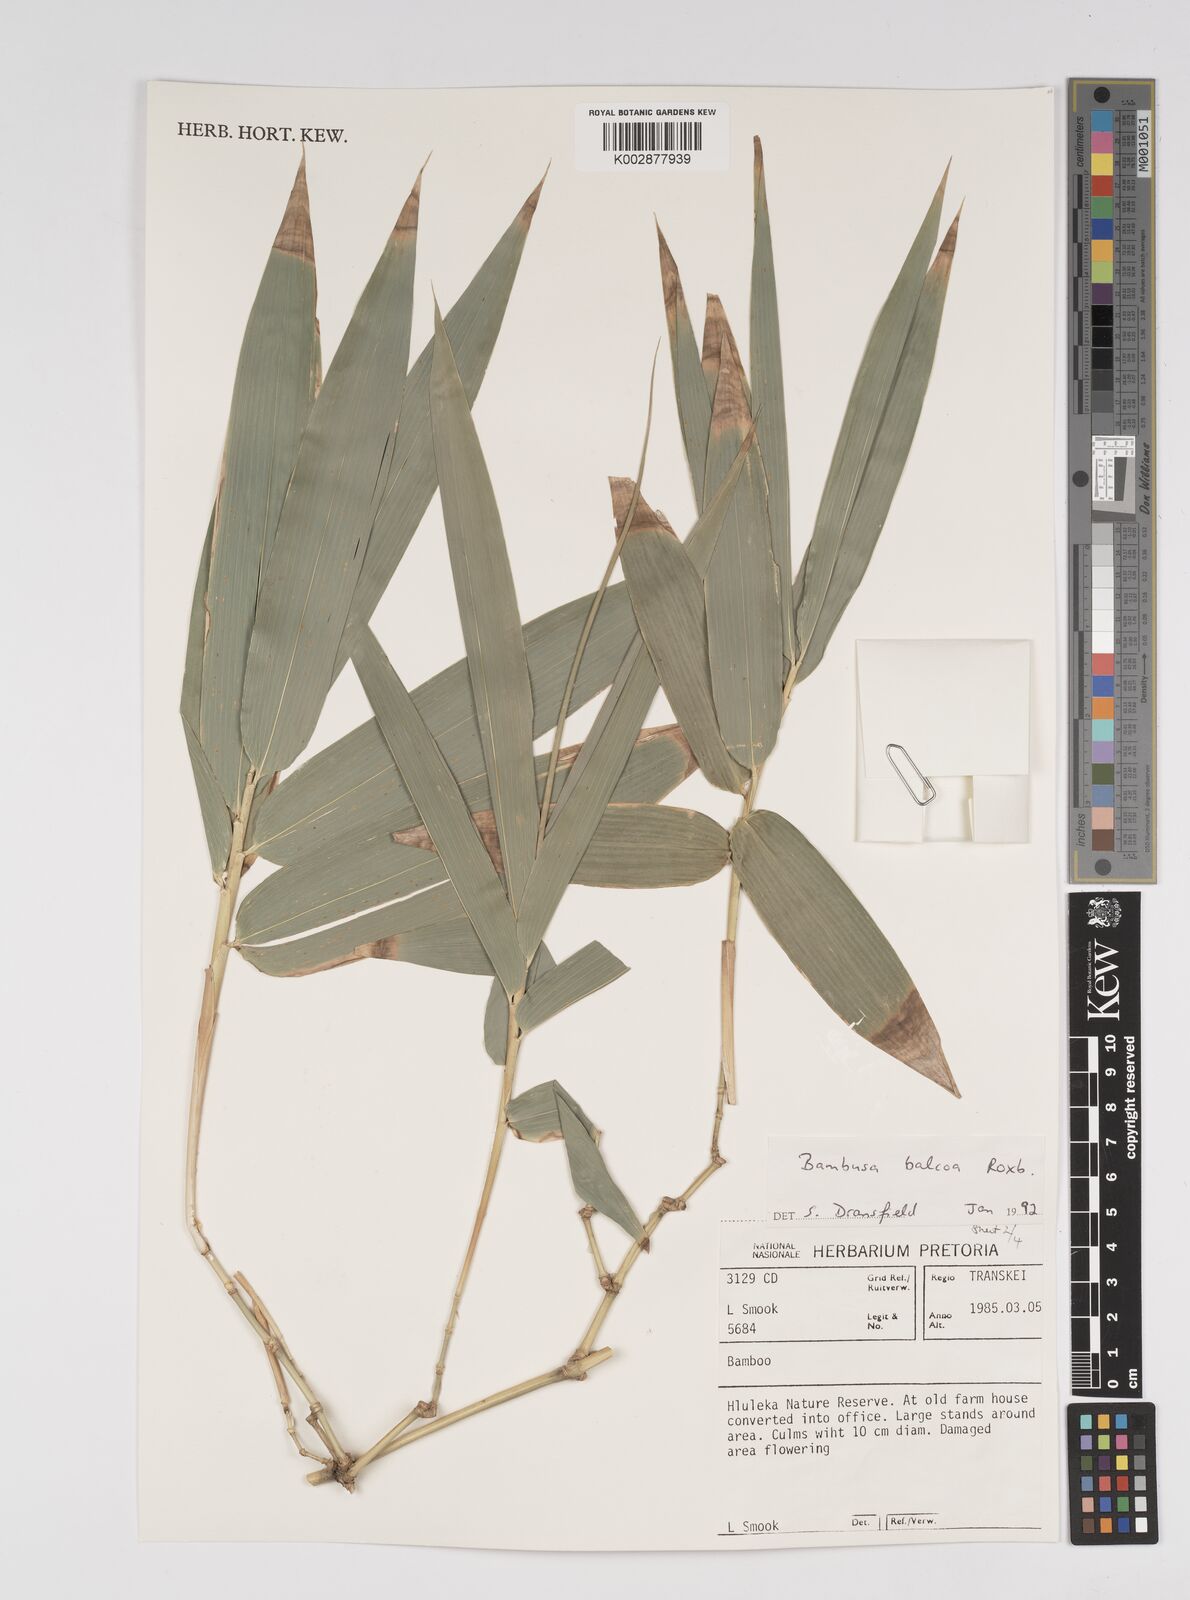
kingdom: Plantae
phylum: Tracheophyta
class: Liliopsida
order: Poales
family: Poaceae
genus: Bambusa
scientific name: Bambusa balcooa
